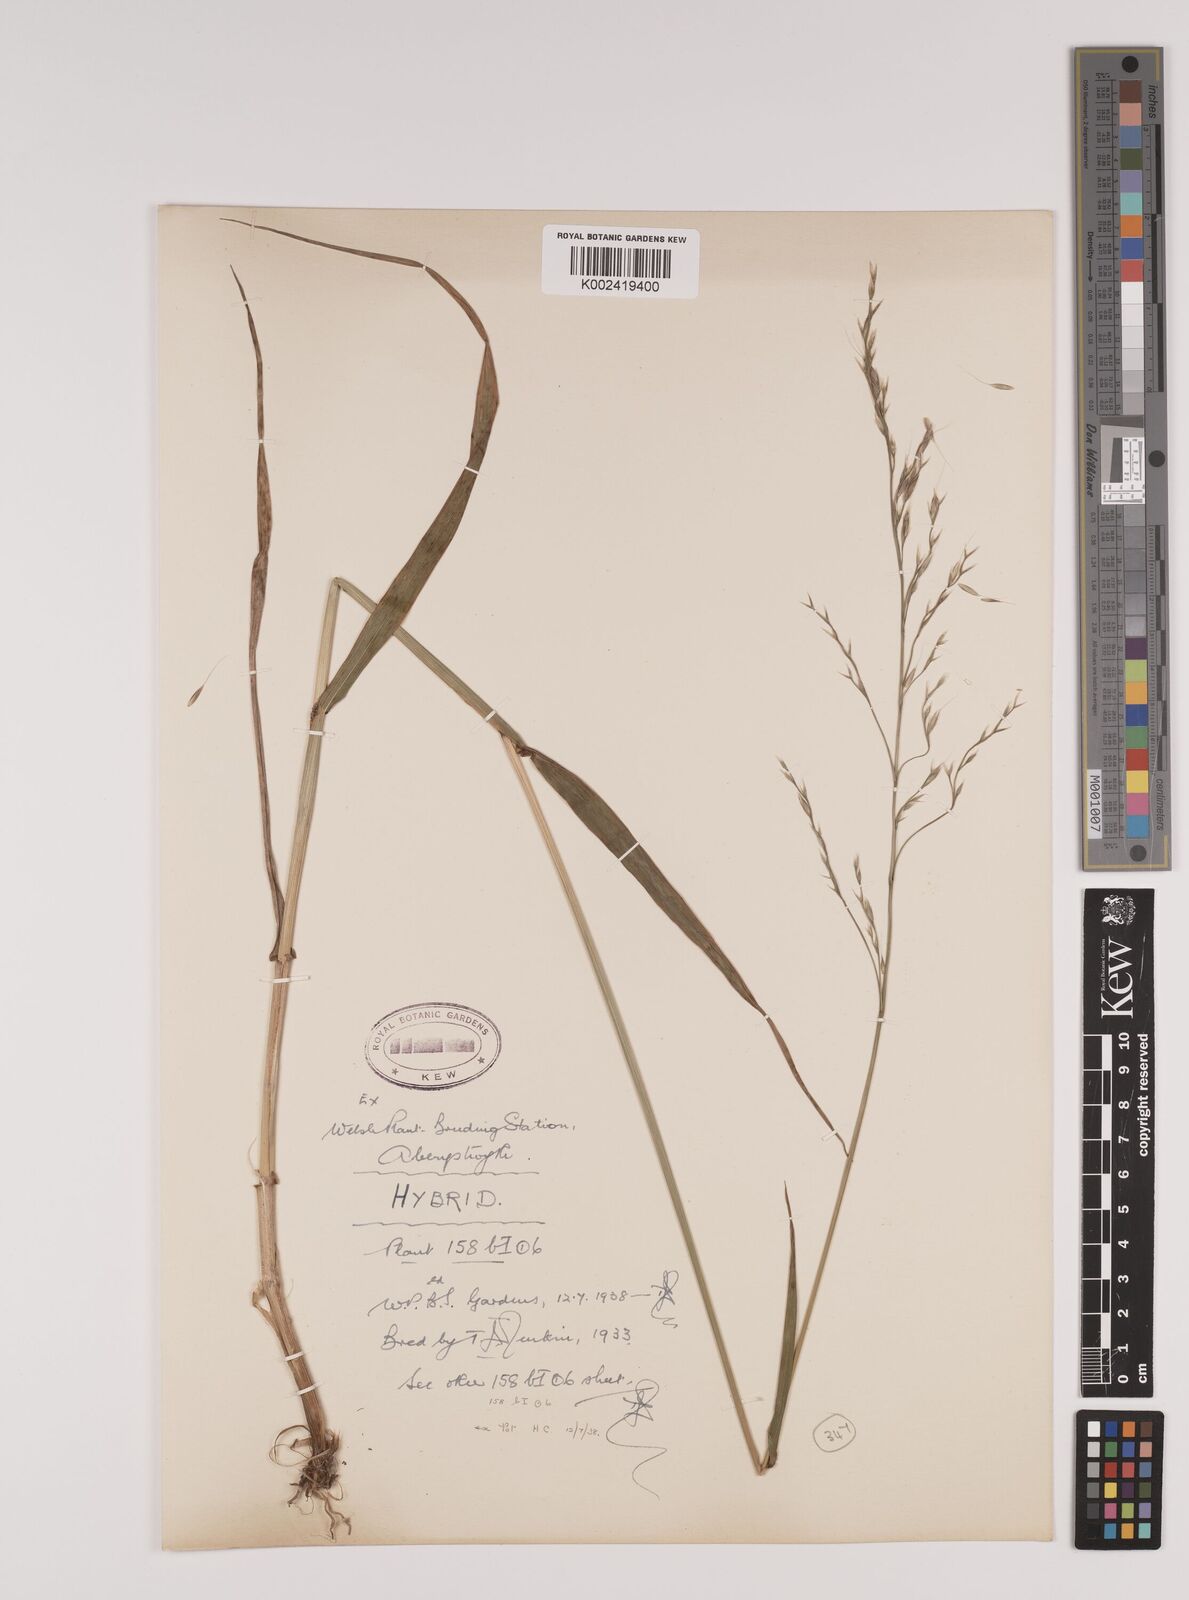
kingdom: Plantae
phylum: Tracheophyta
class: Liliopsida
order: Poales
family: Poaceae
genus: Lolium
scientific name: Lolium giganteum
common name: Giant fescue
